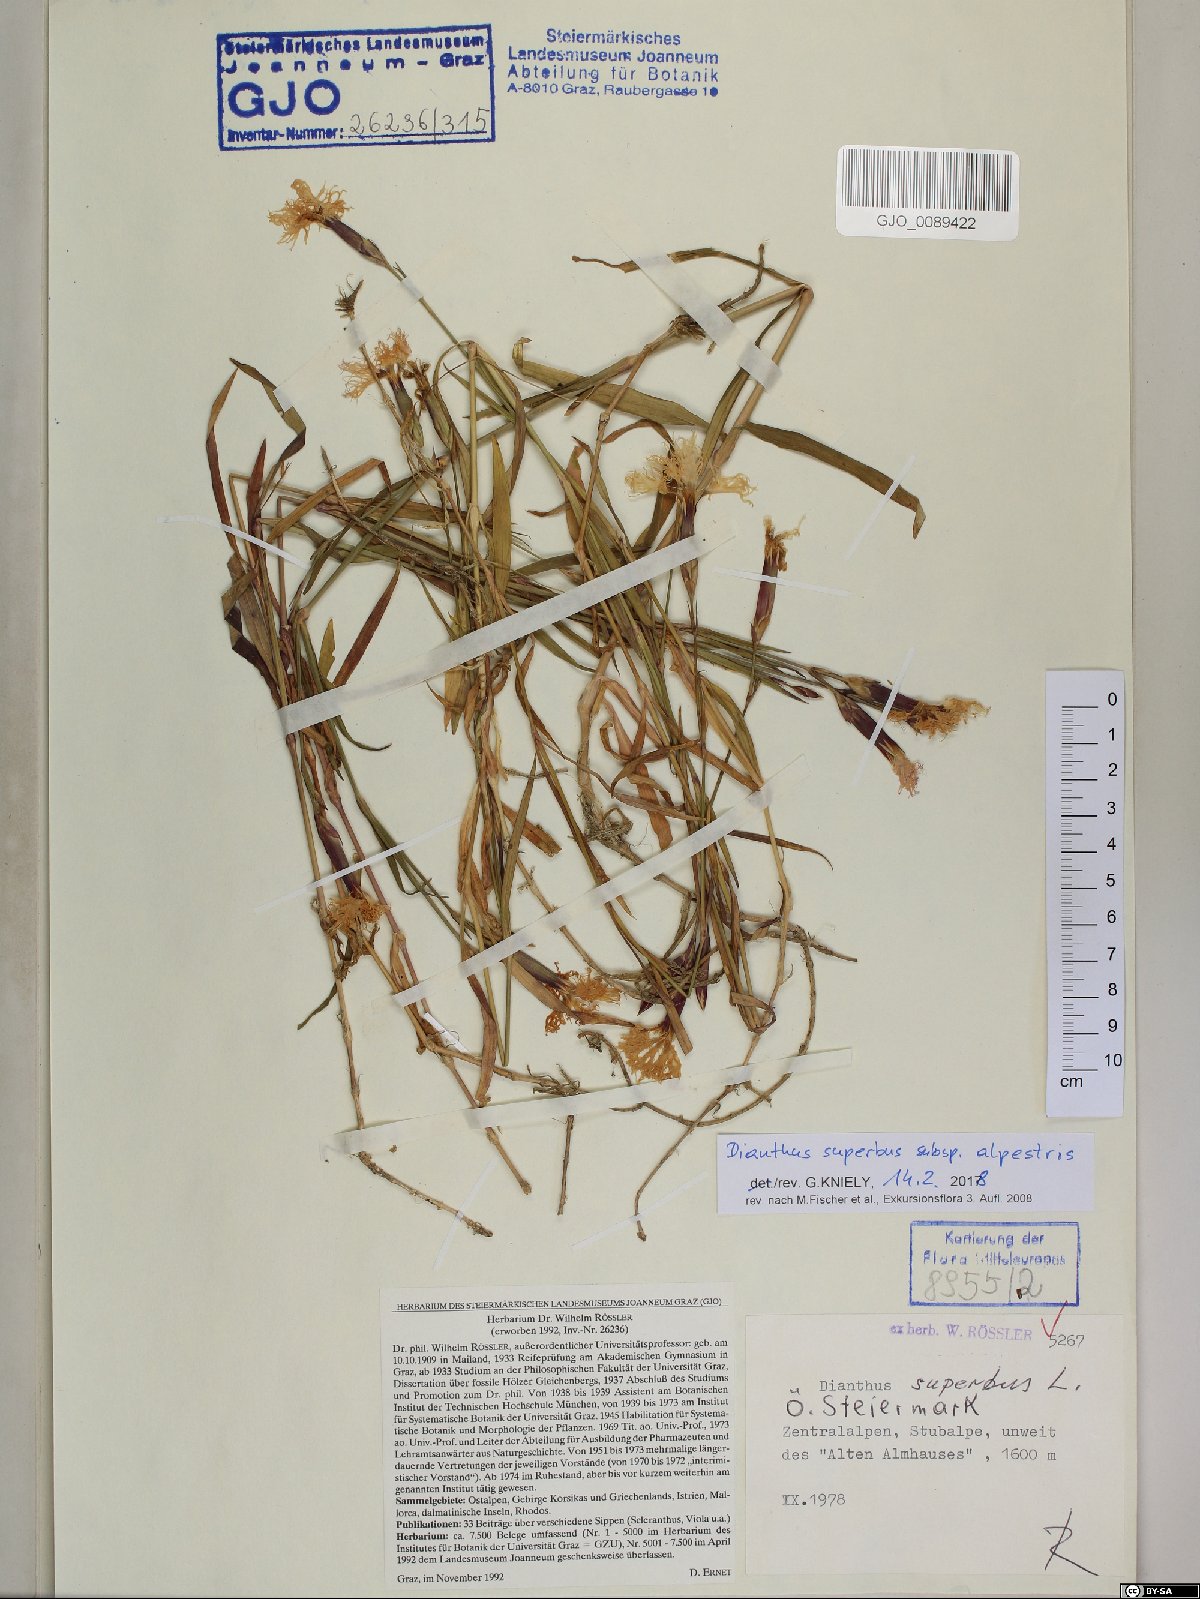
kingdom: Plantae
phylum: Tracheophyta
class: Magnoliopsida
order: Caryophyllales
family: Caryophyllaceae
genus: Dianthus
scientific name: Dianthus superbus
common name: Fringed pink
